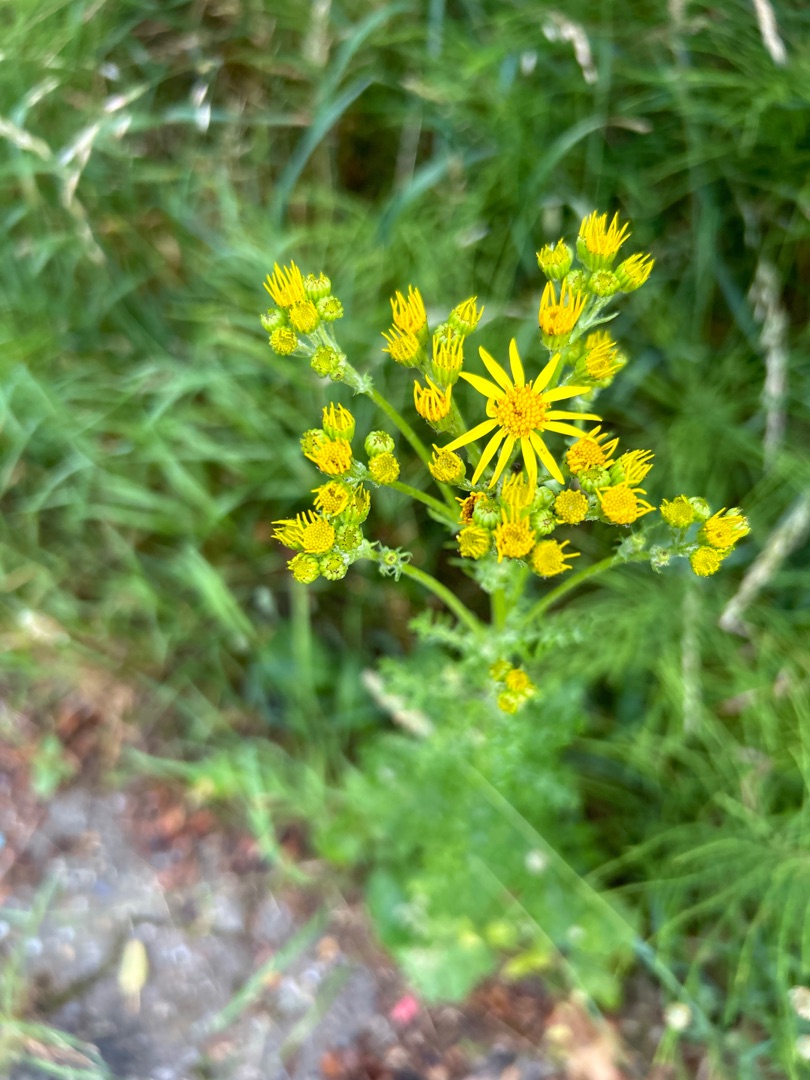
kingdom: Plantae
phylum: Tracheophyta
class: Magnoliopsida
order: Asterales
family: Asteraceae
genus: Jacobaea
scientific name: Jacobaea vulgaris
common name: Eng-brandbæger
